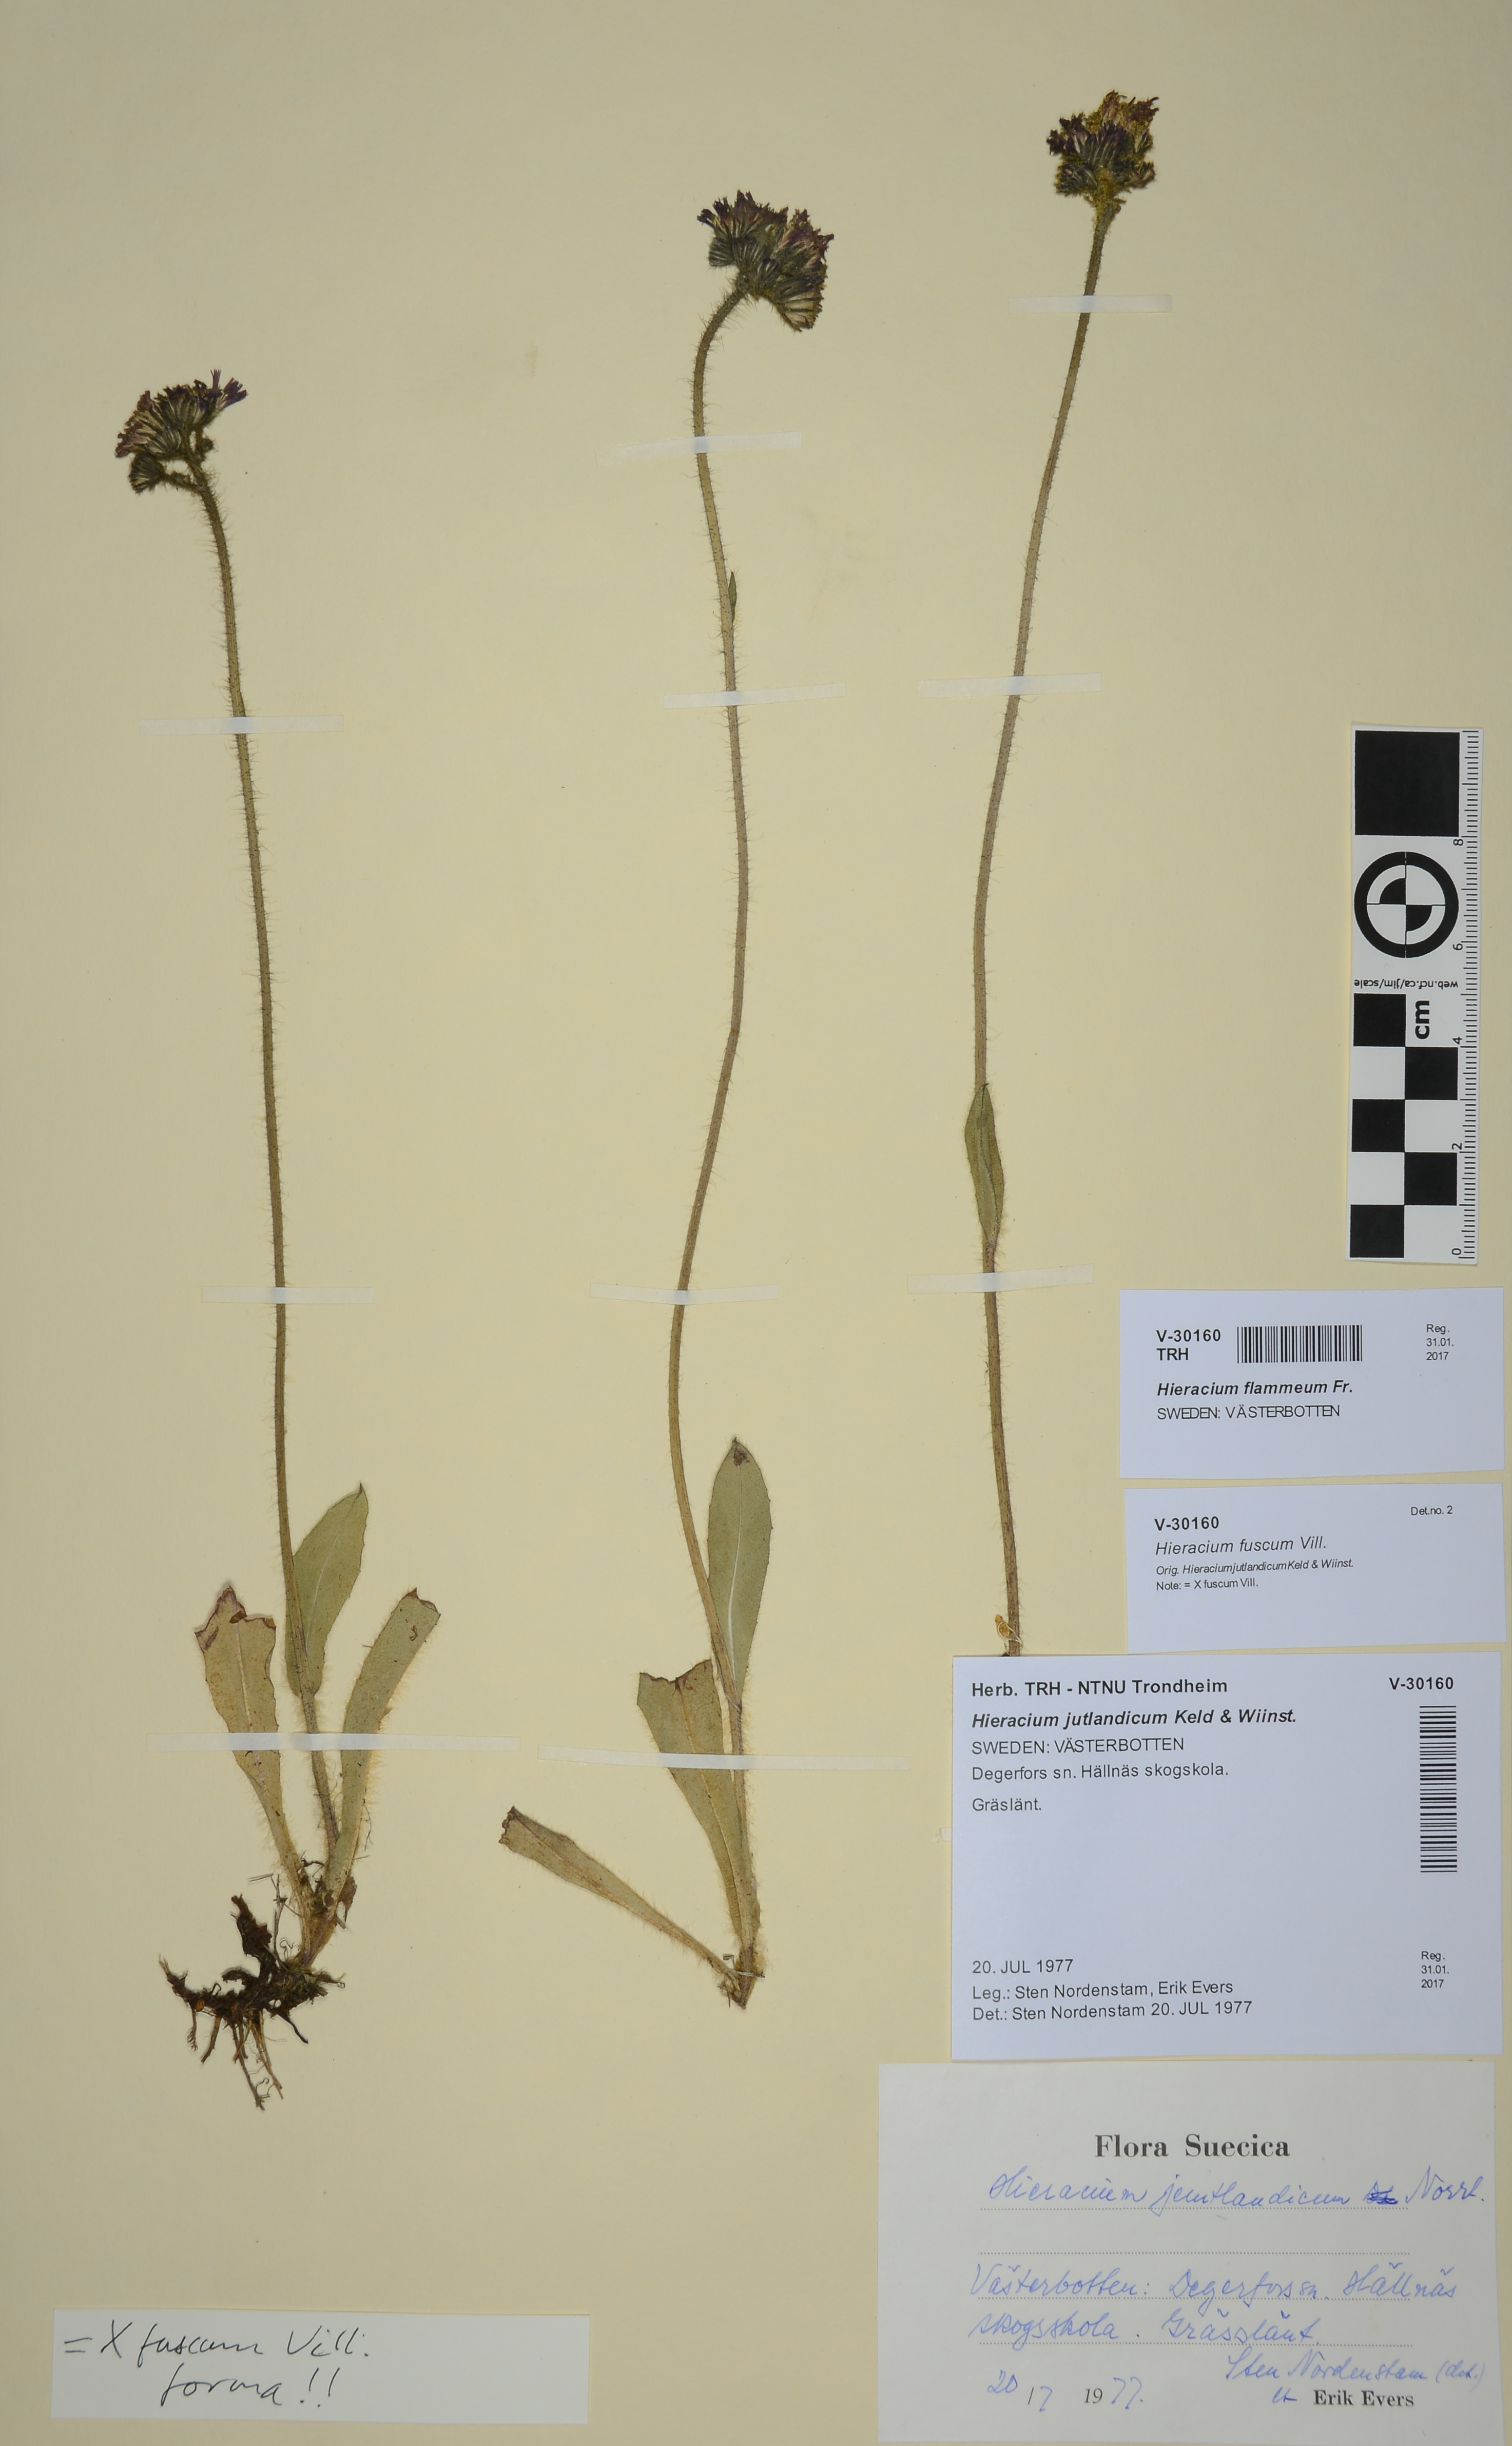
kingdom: Plantae
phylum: Tracheophyta
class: Magnoliopsida
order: Asterales
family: Asteraceae
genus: Pilosella
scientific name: Pilosella fusca
